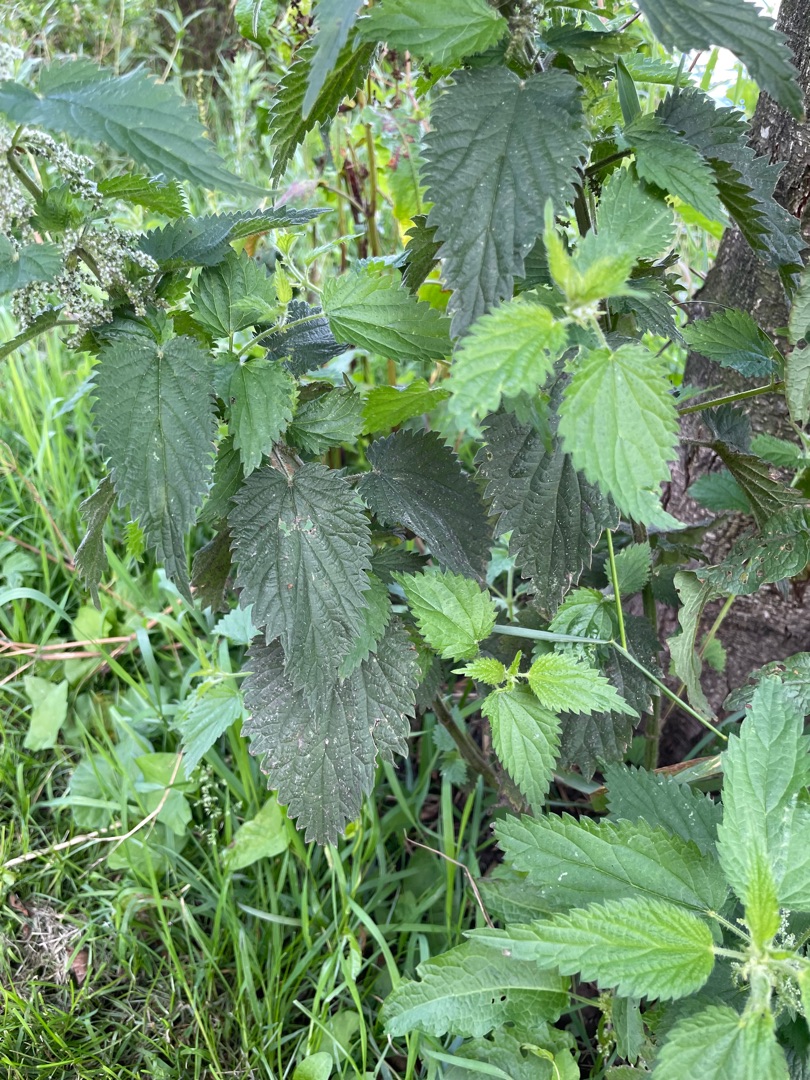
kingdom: Plantae
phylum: Tracheophyta
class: Magnoliopsida
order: Rosales
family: Urticaceae
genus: Urtica
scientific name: Urtica dioica
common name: Stor nælde
